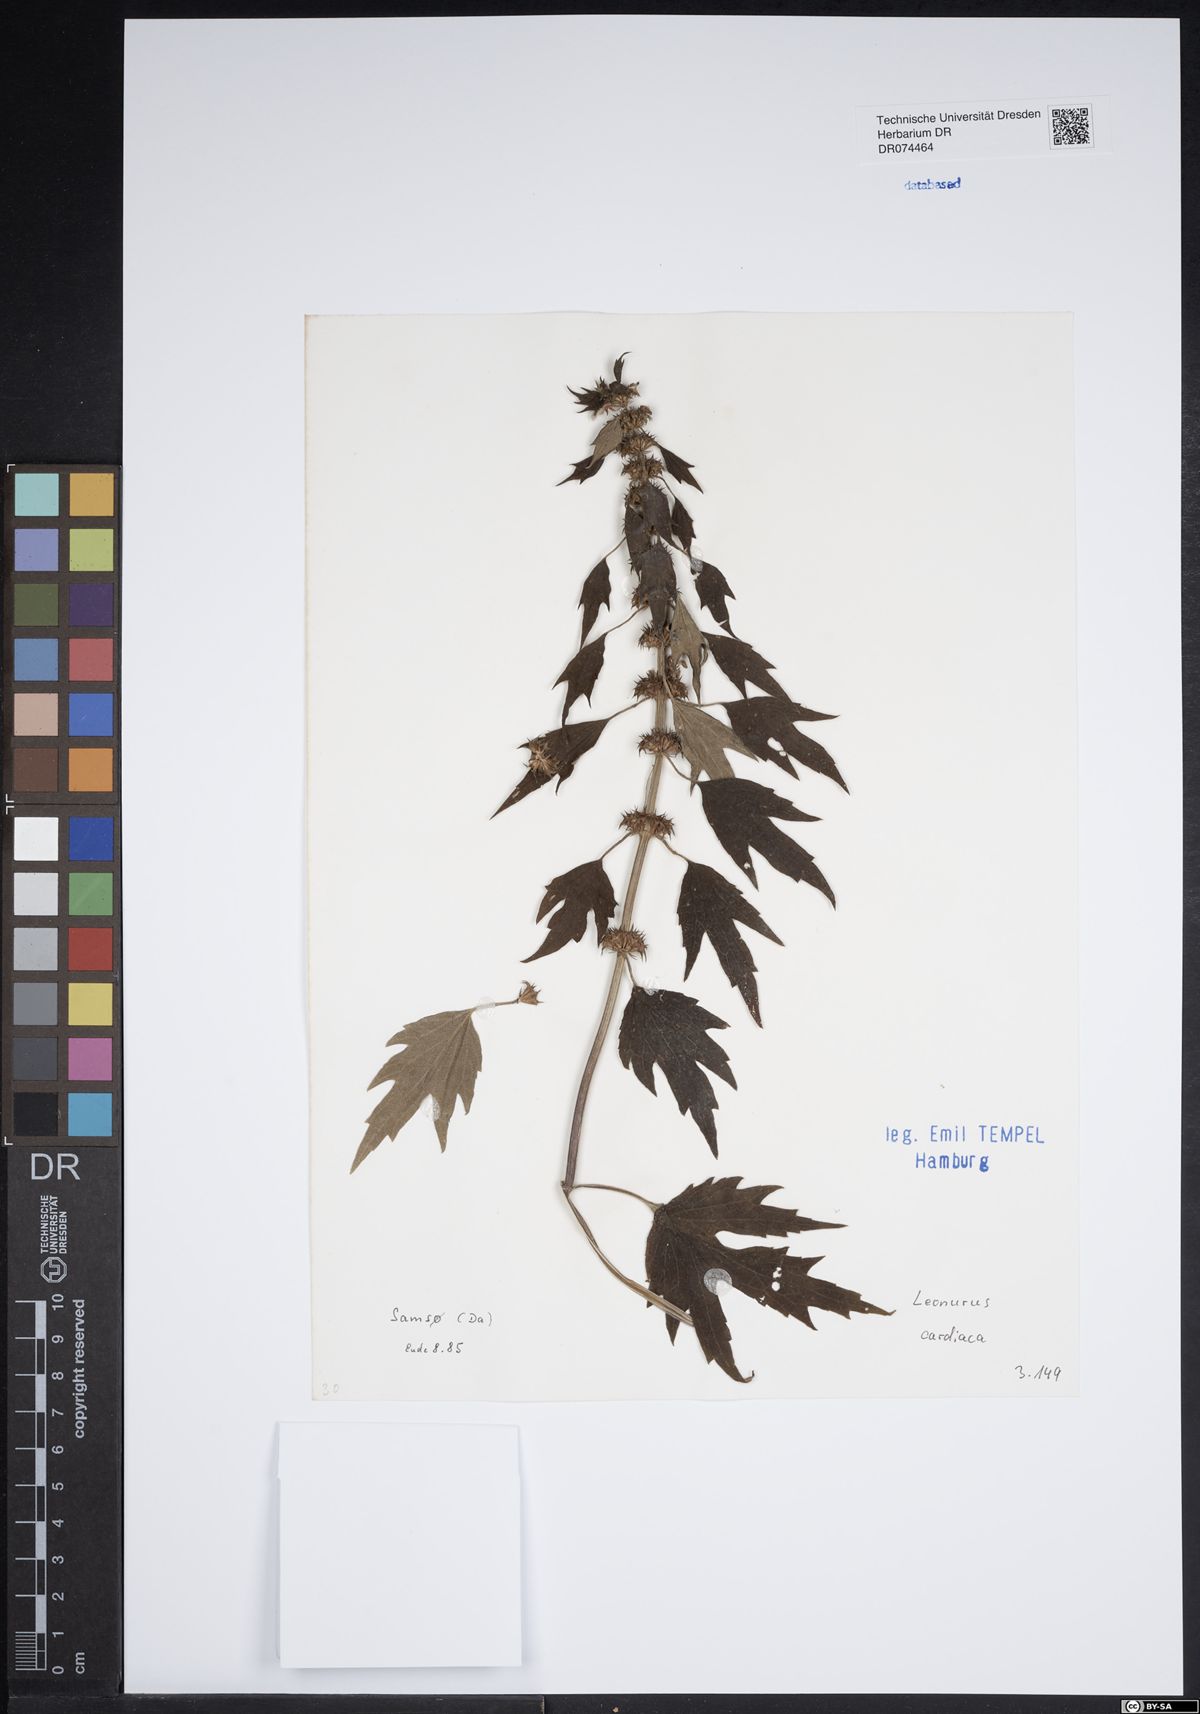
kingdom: Plantae
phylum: Tracheophyta
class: Magnoliopsida
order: Lamiales
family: Lamiaceae
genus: Leonurus
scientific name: Leonurus cardiaca
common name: Motherwort
